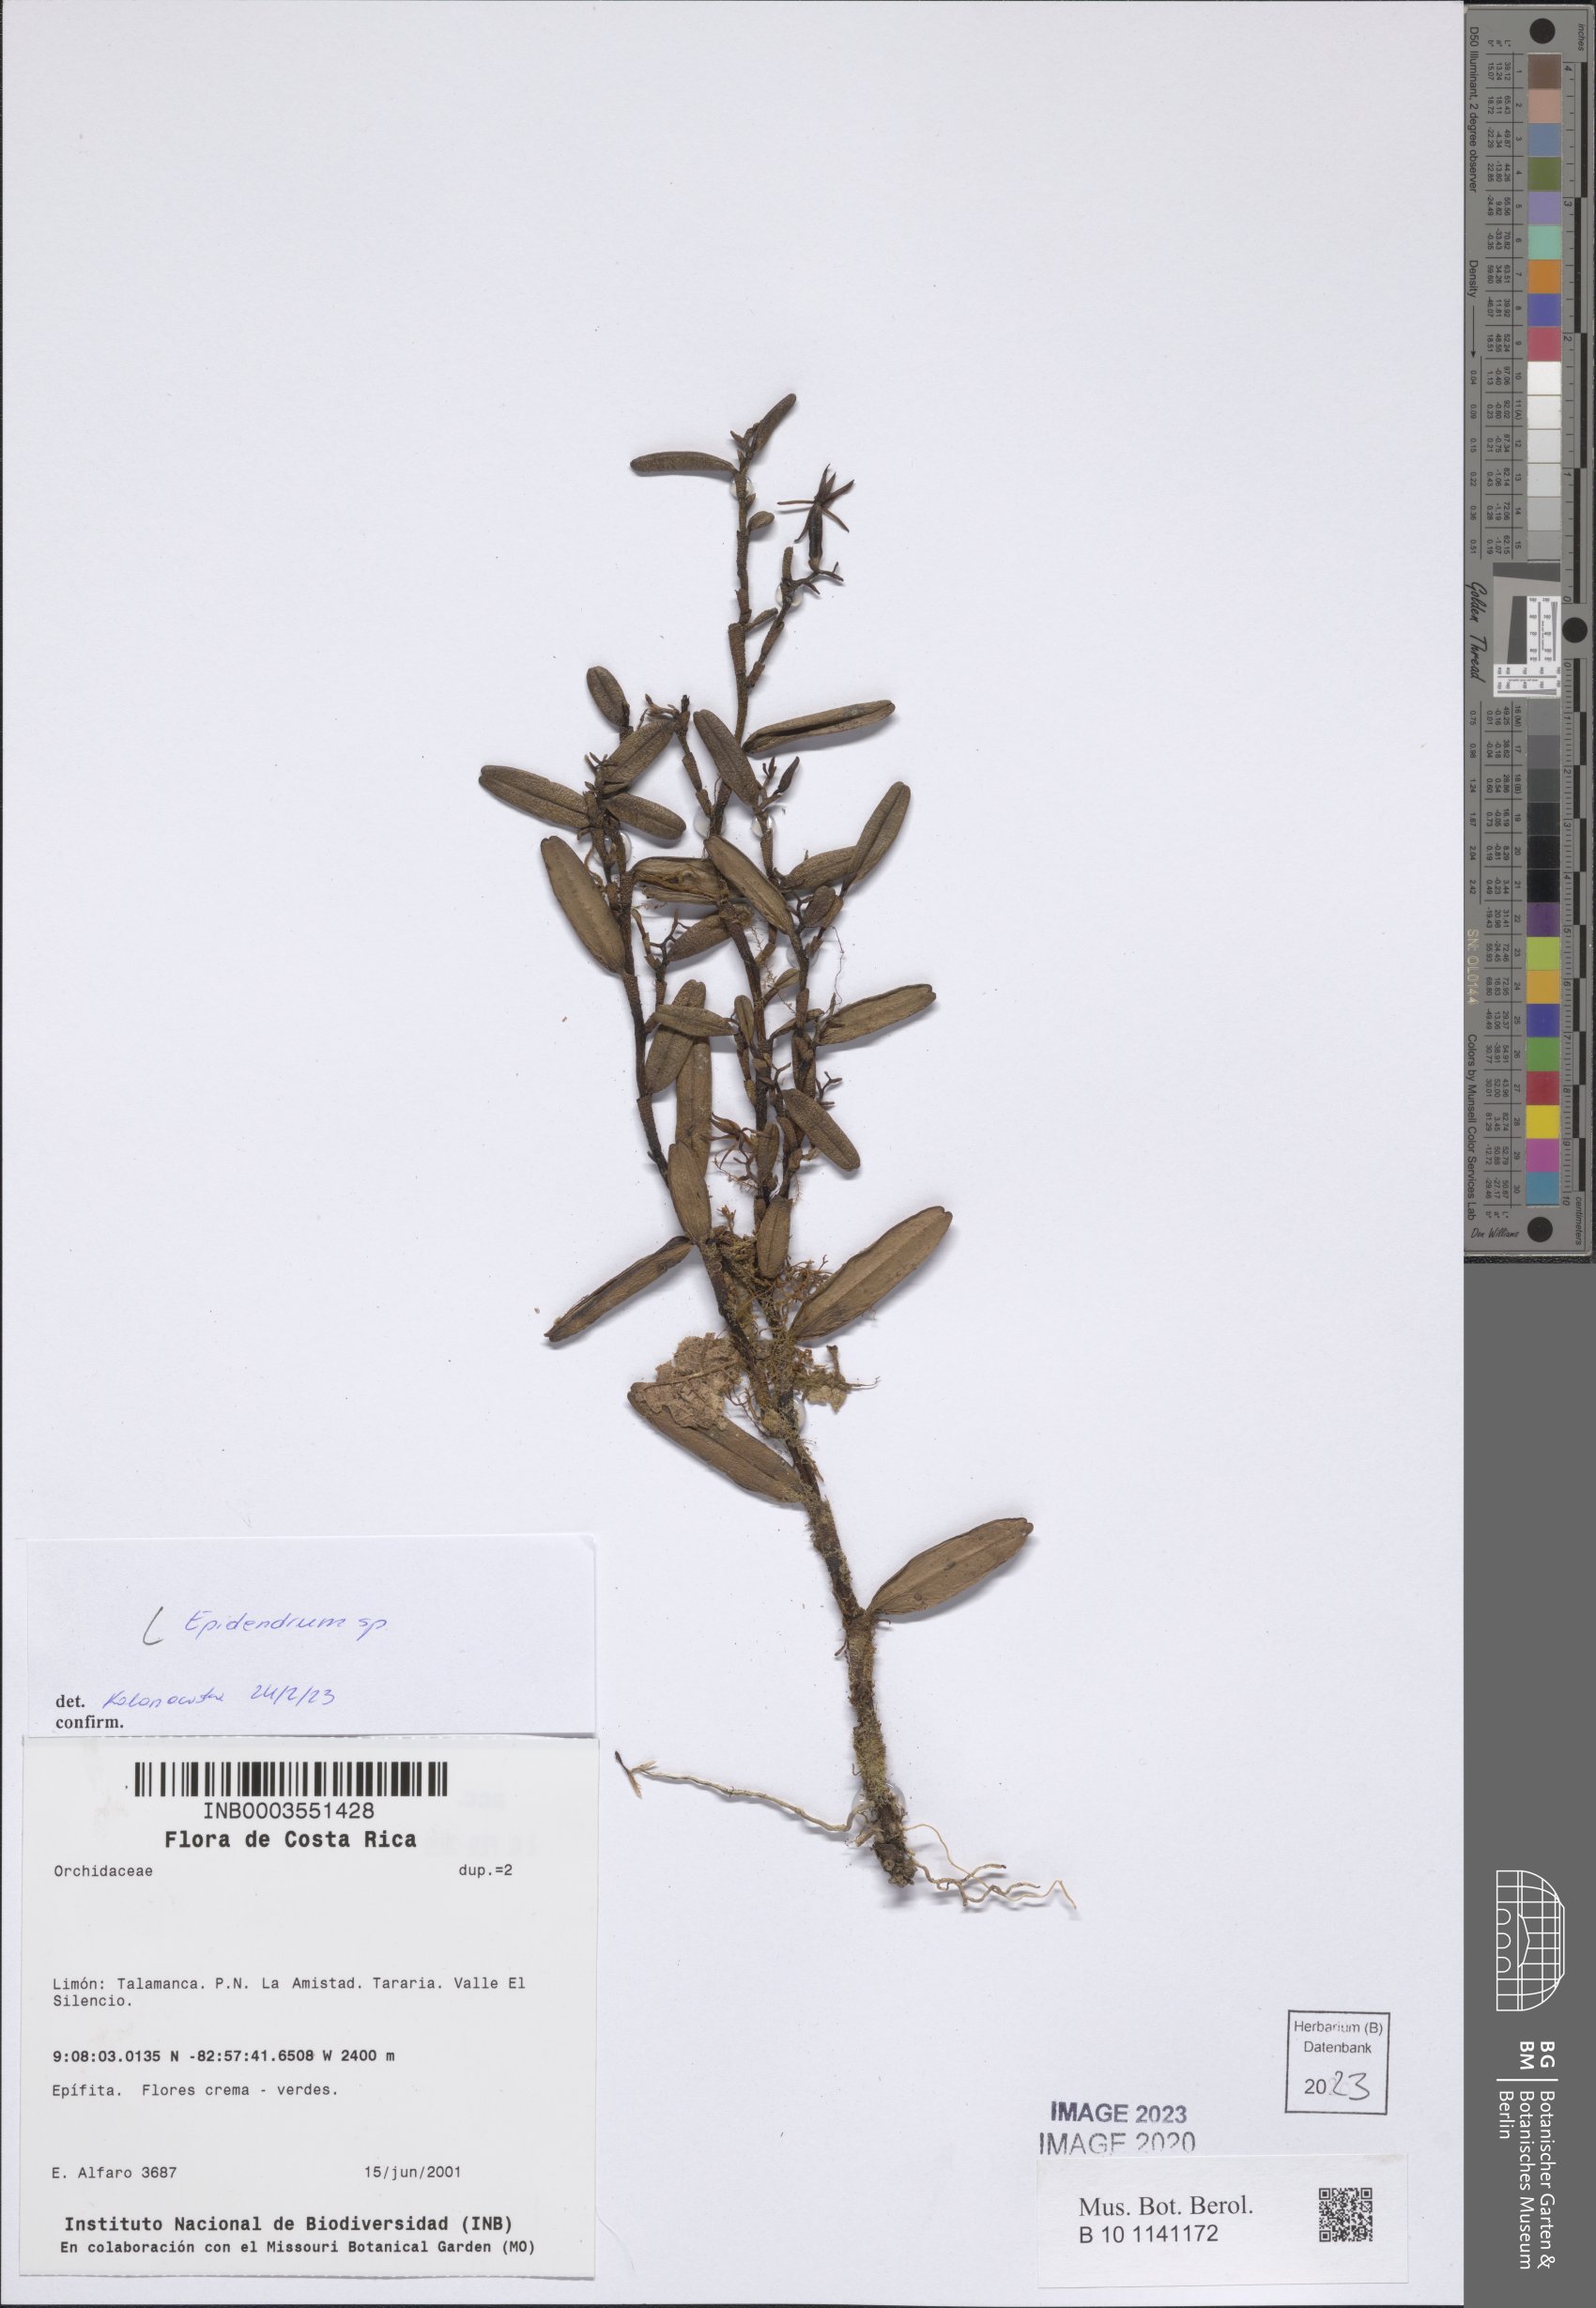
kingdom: Plantae
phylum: Tracheophyta
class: Liliopsida
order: Asparagales
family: Orchidaceae
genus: Epidendrum
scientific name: Epidendrum
